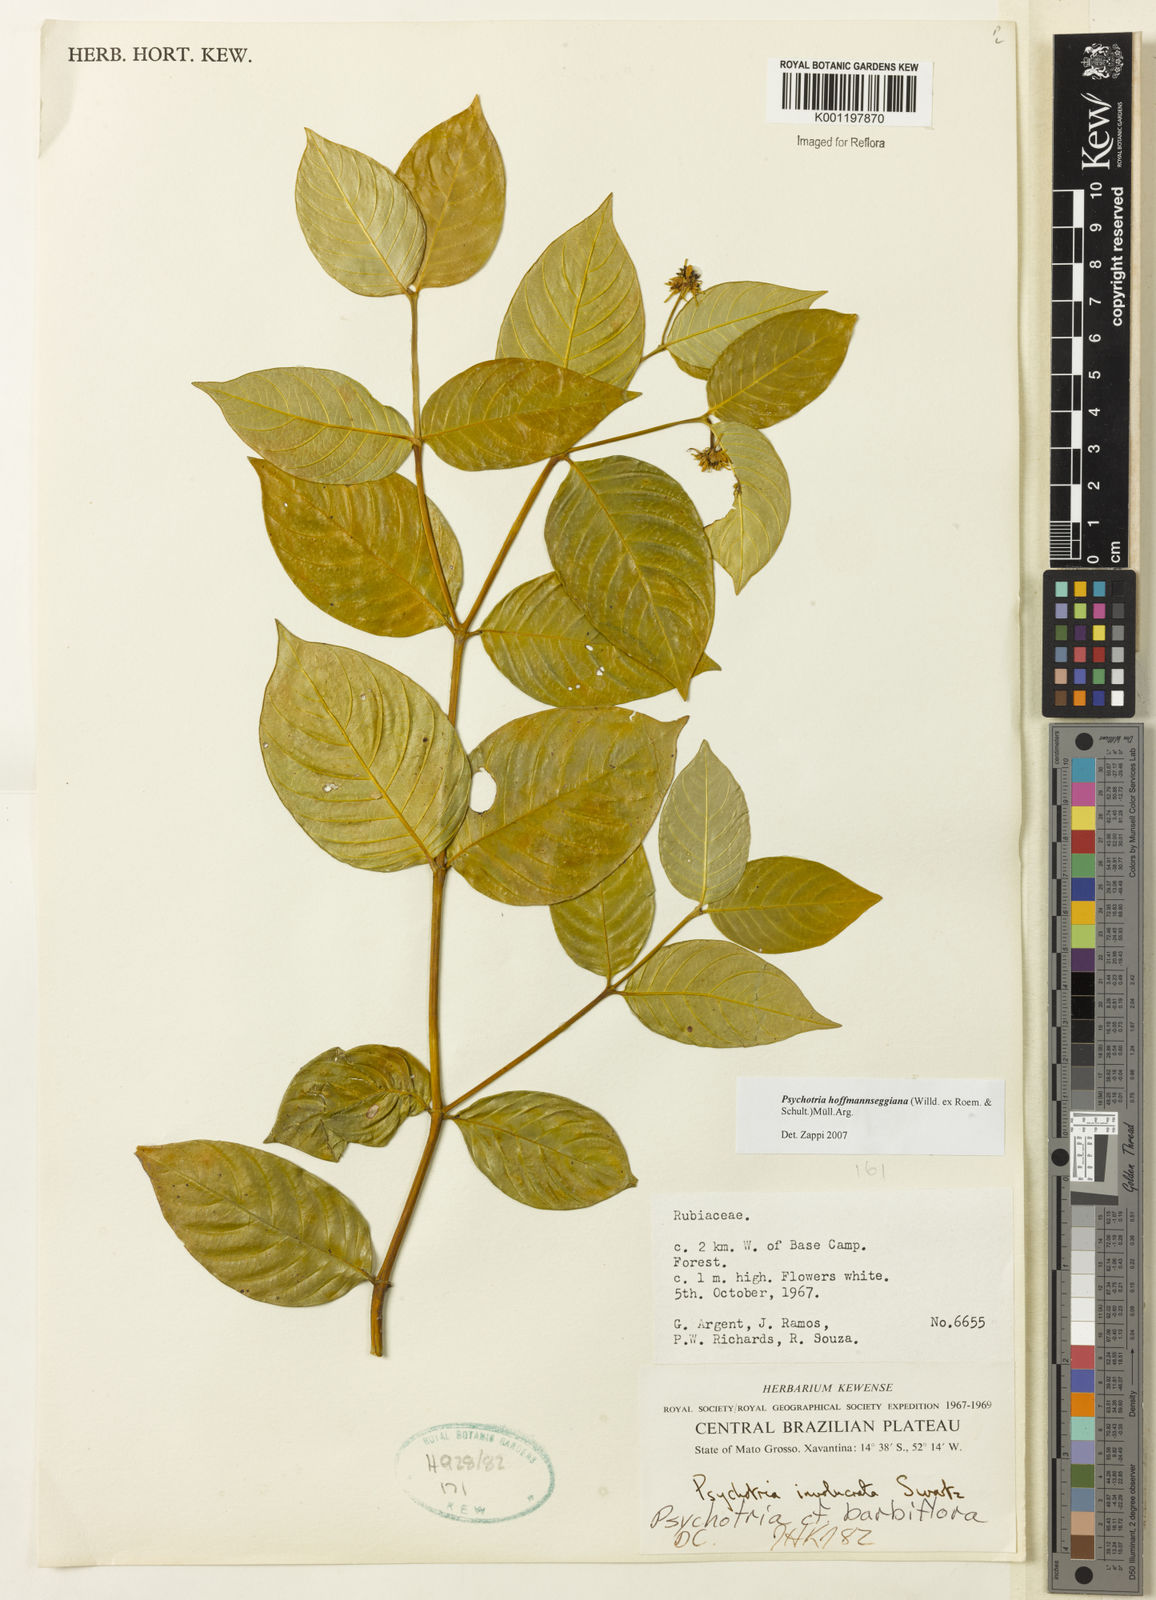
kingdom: Plantae
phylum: Tracheophyta
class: Magnoliopsida
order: Gentianales
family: Rubiaceae
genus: Psychotria
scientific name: Psychotria
